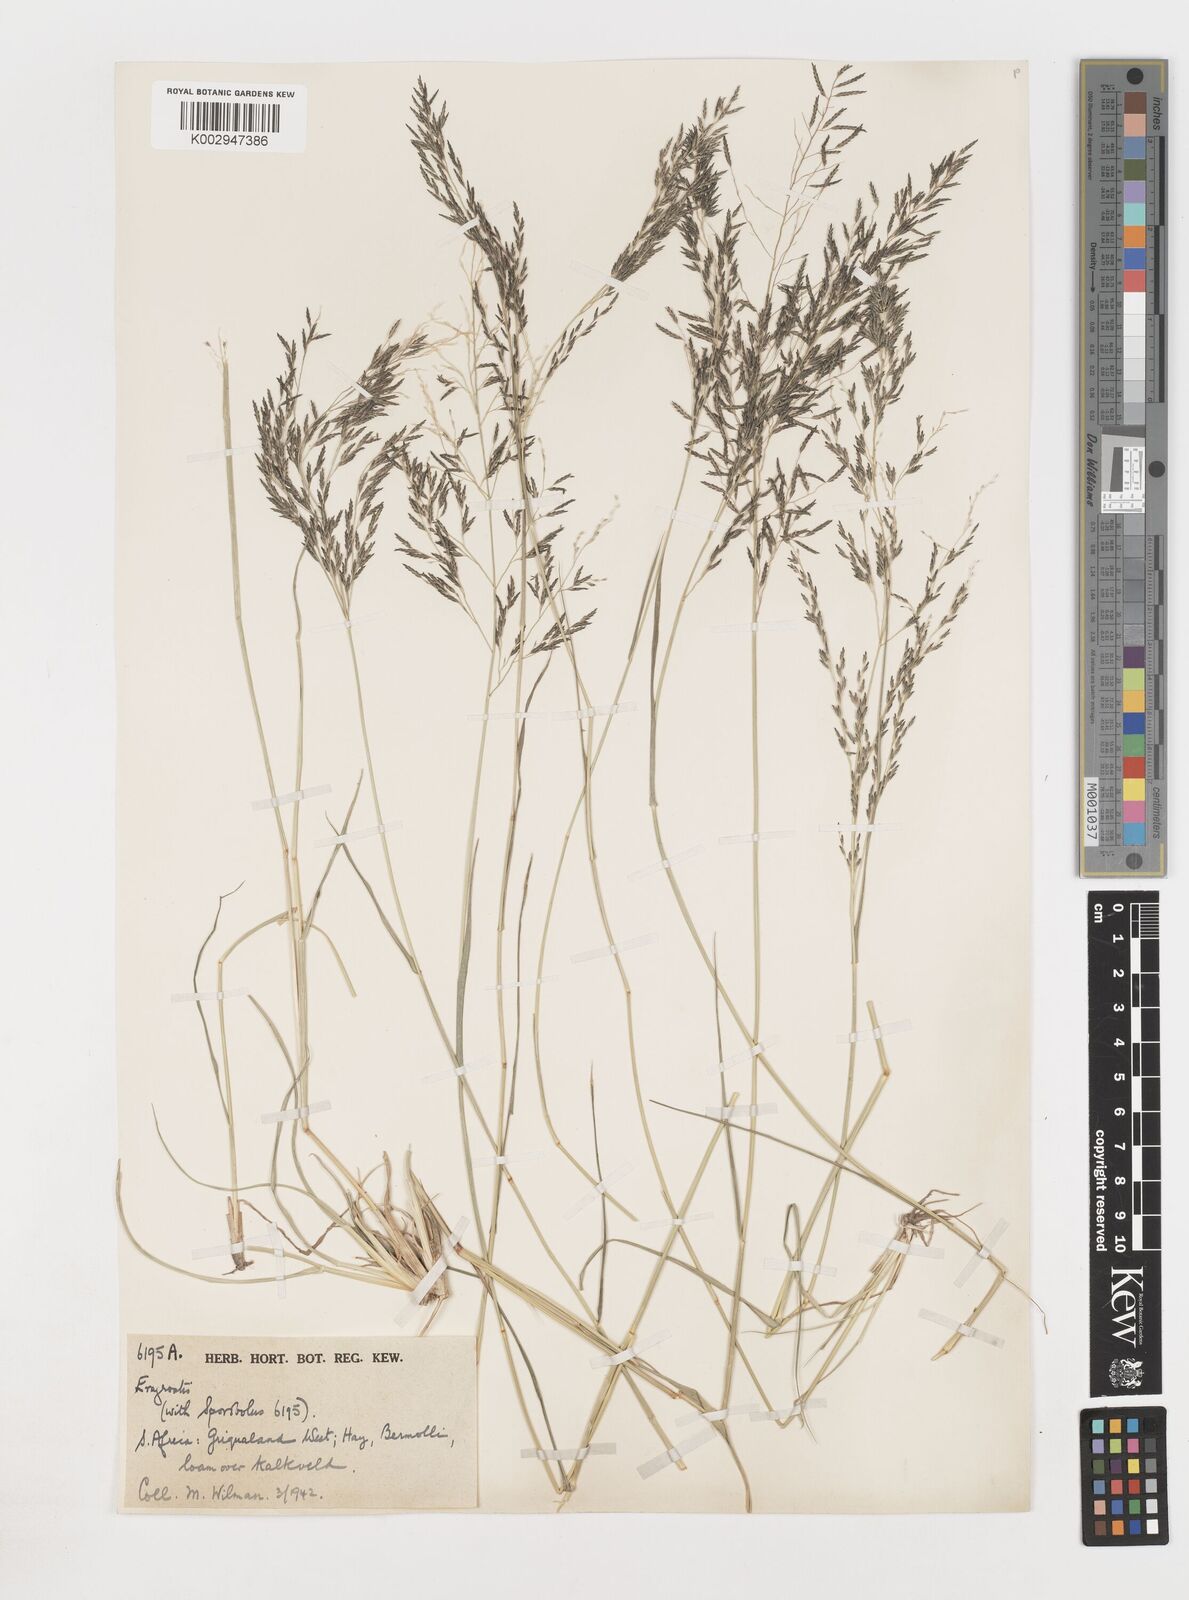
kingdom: Plantae
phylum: Tracheophyta
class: Liliopsida
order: Poales
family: Poaceae
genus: Eragrostis
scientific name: Eragrostis
